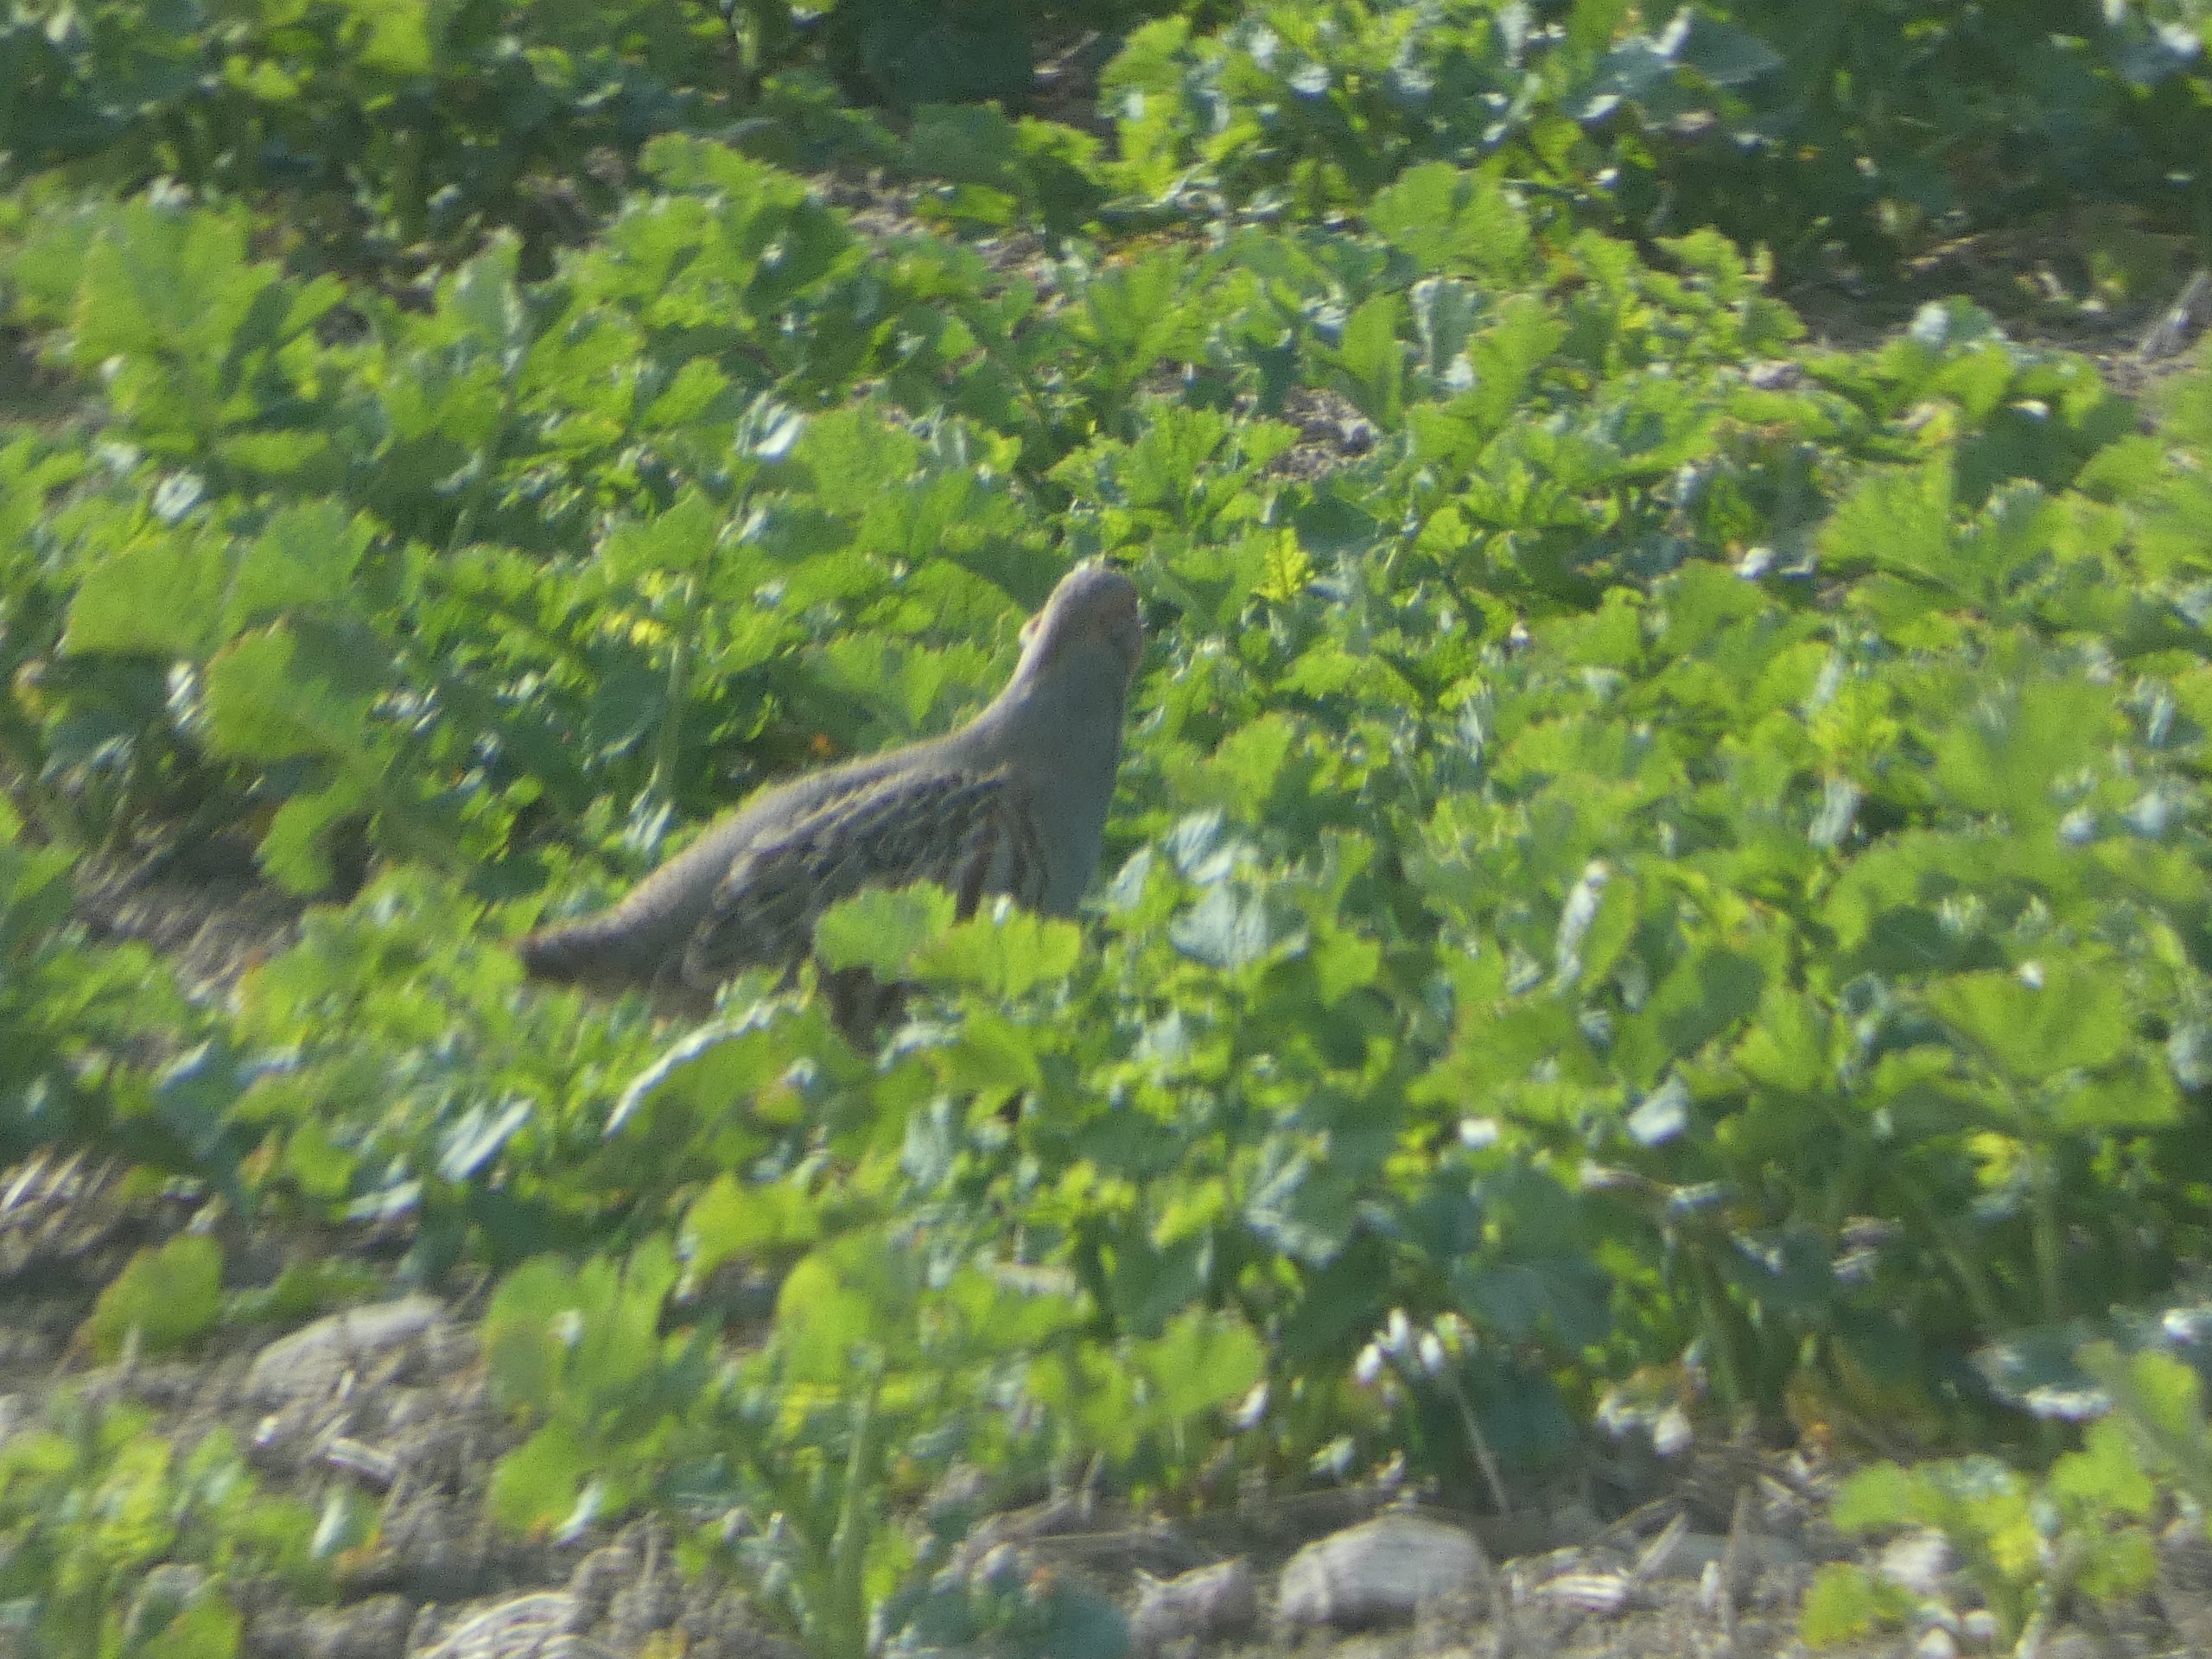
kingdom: Animalia
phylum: Chordata
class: Aves
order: Galliformes
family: Phasianidae
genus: Perdix
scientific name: Perdix perdix
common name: Agerhøne
